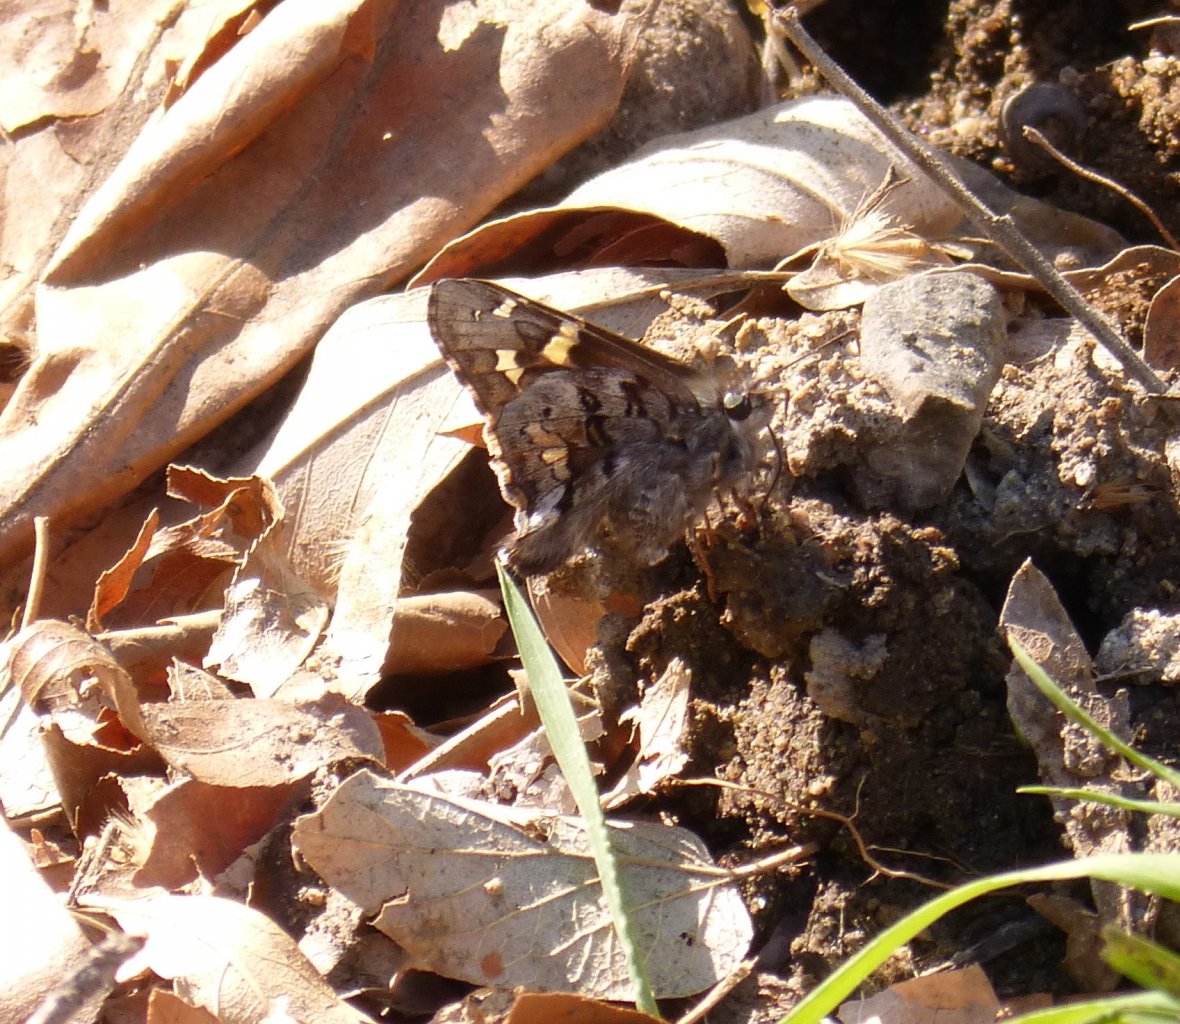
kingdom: Animalia
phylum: Arthropoda
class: Insecta
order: Lepidoptera
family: Hesperiidae
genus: Zestusa
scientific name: Zestusa dorus
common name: Short-tailed Skipper
